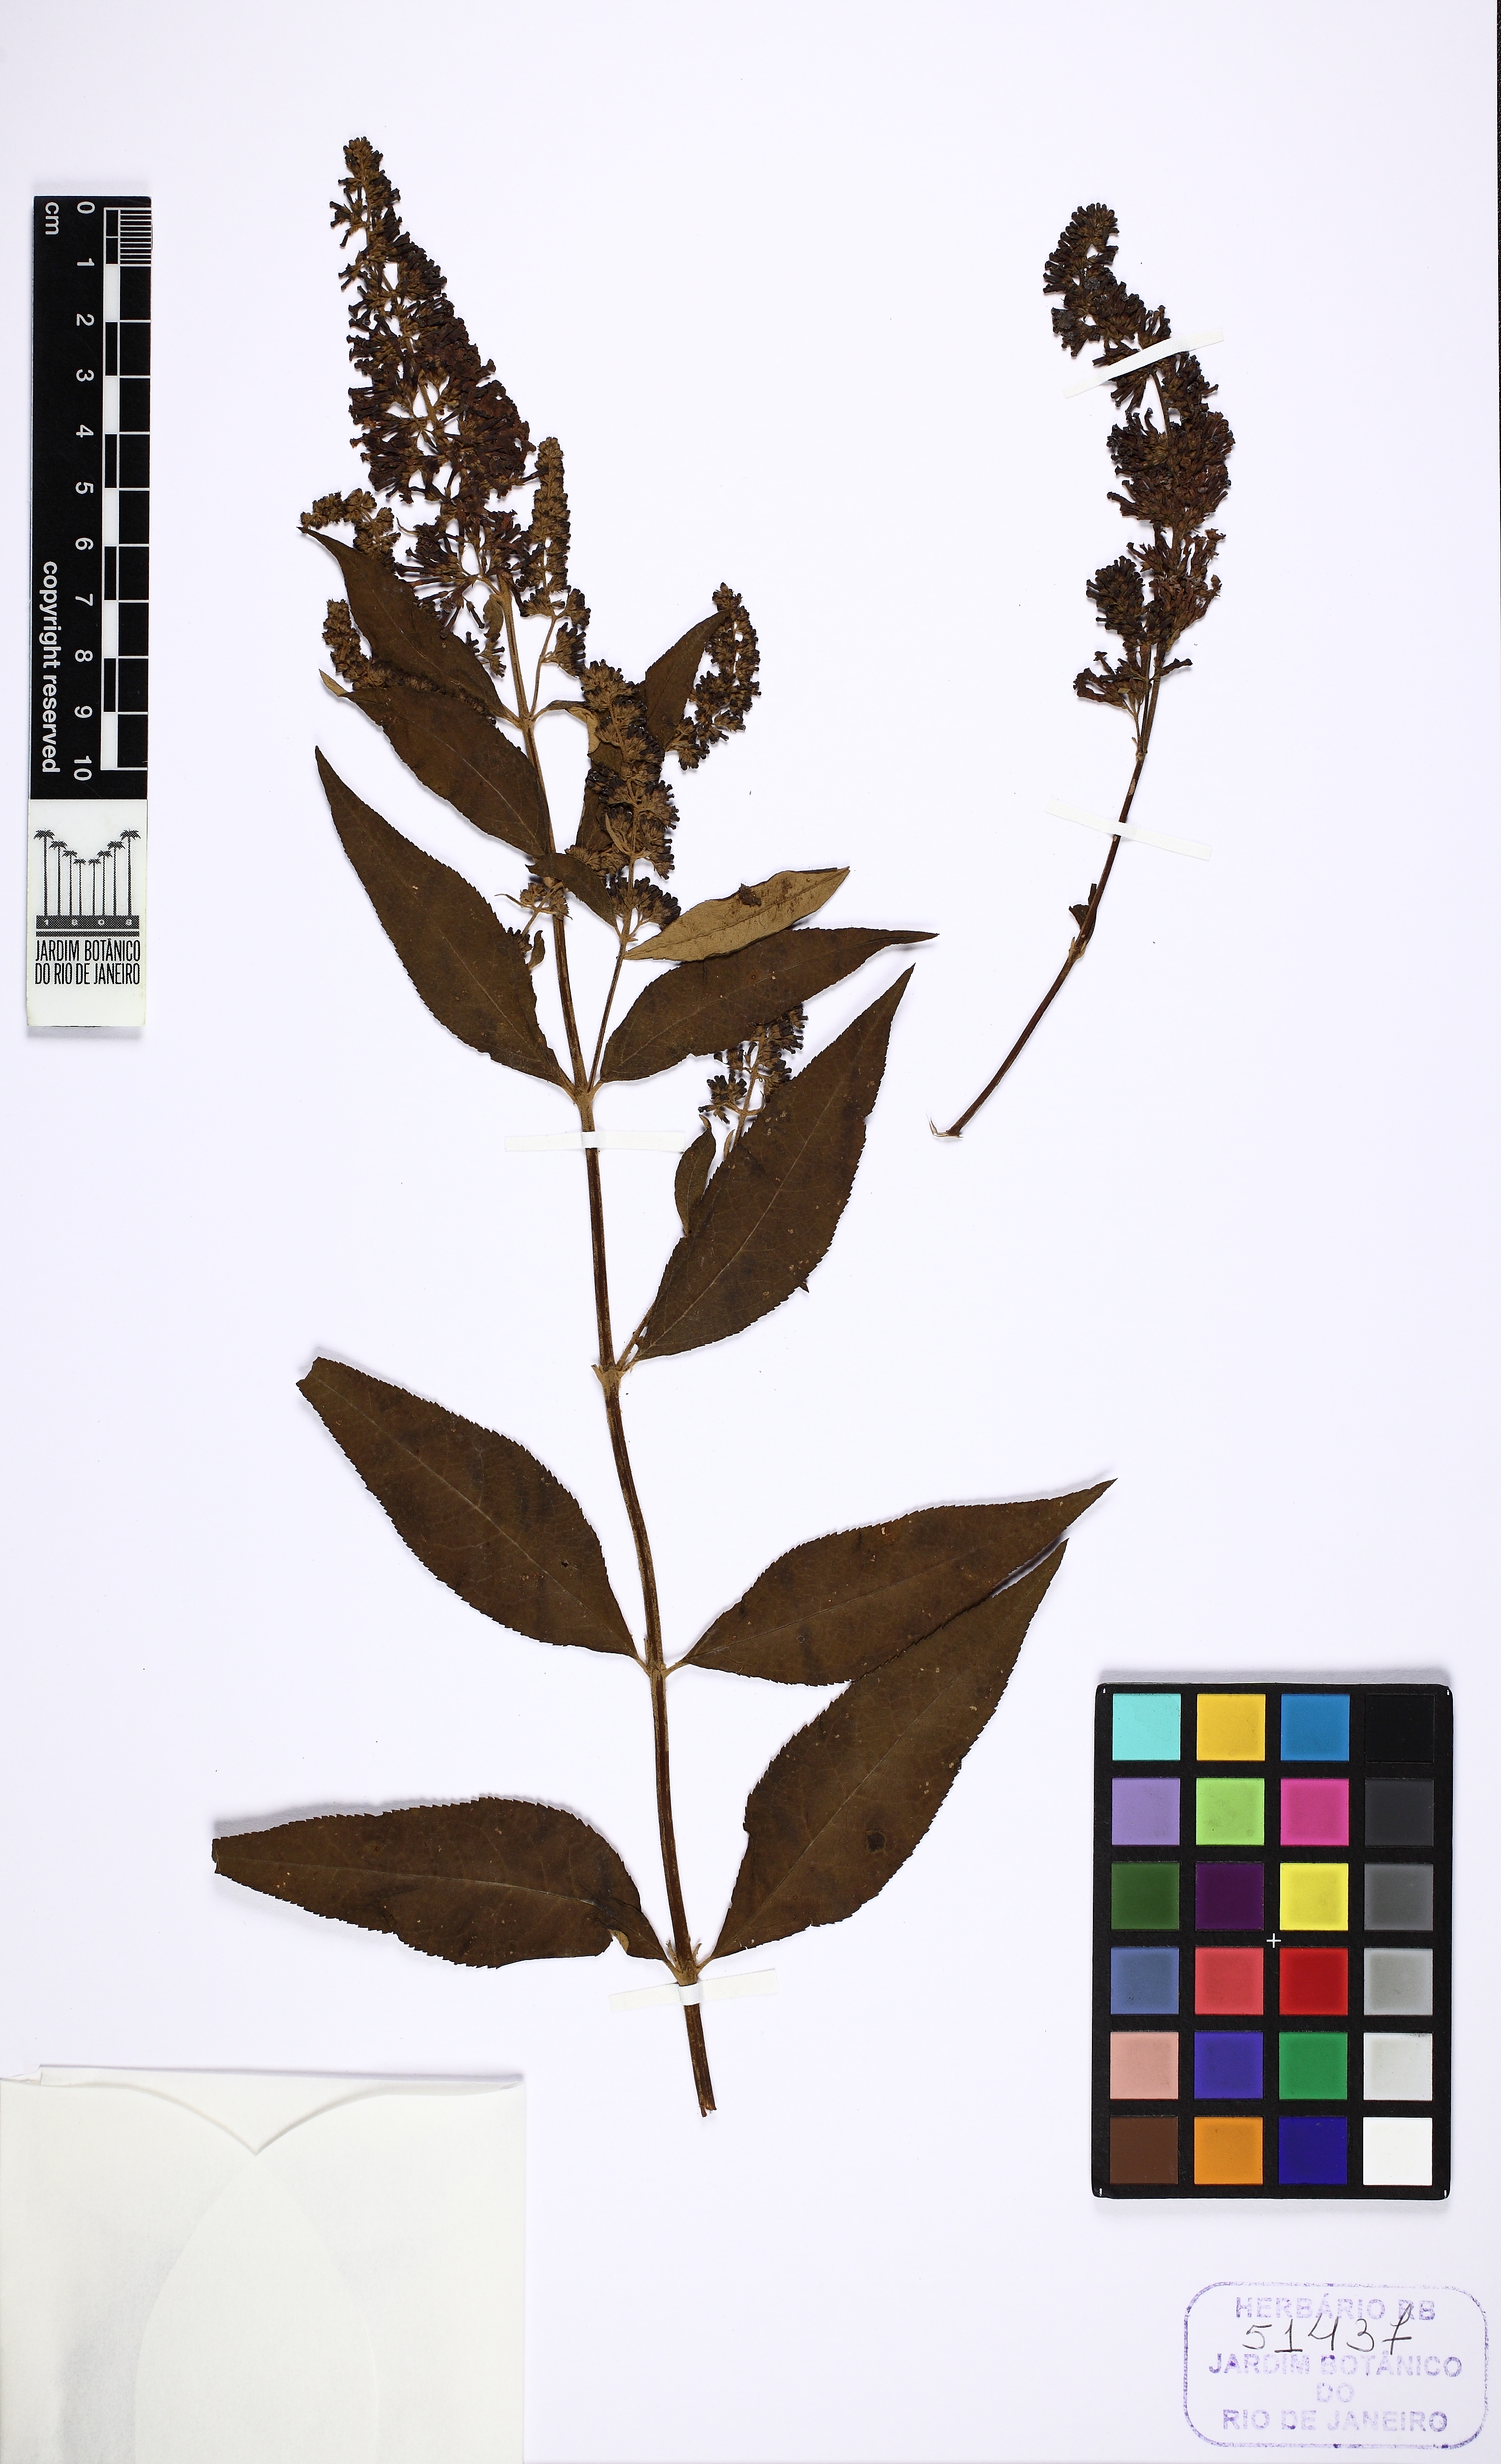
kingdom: Plantae
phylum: Tracheophyta
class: Magnoliopsida
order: Lamiales
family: Scrophulariaceae
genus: Buddleja
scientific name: Buddleja davidii
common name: Butterfly-bush
